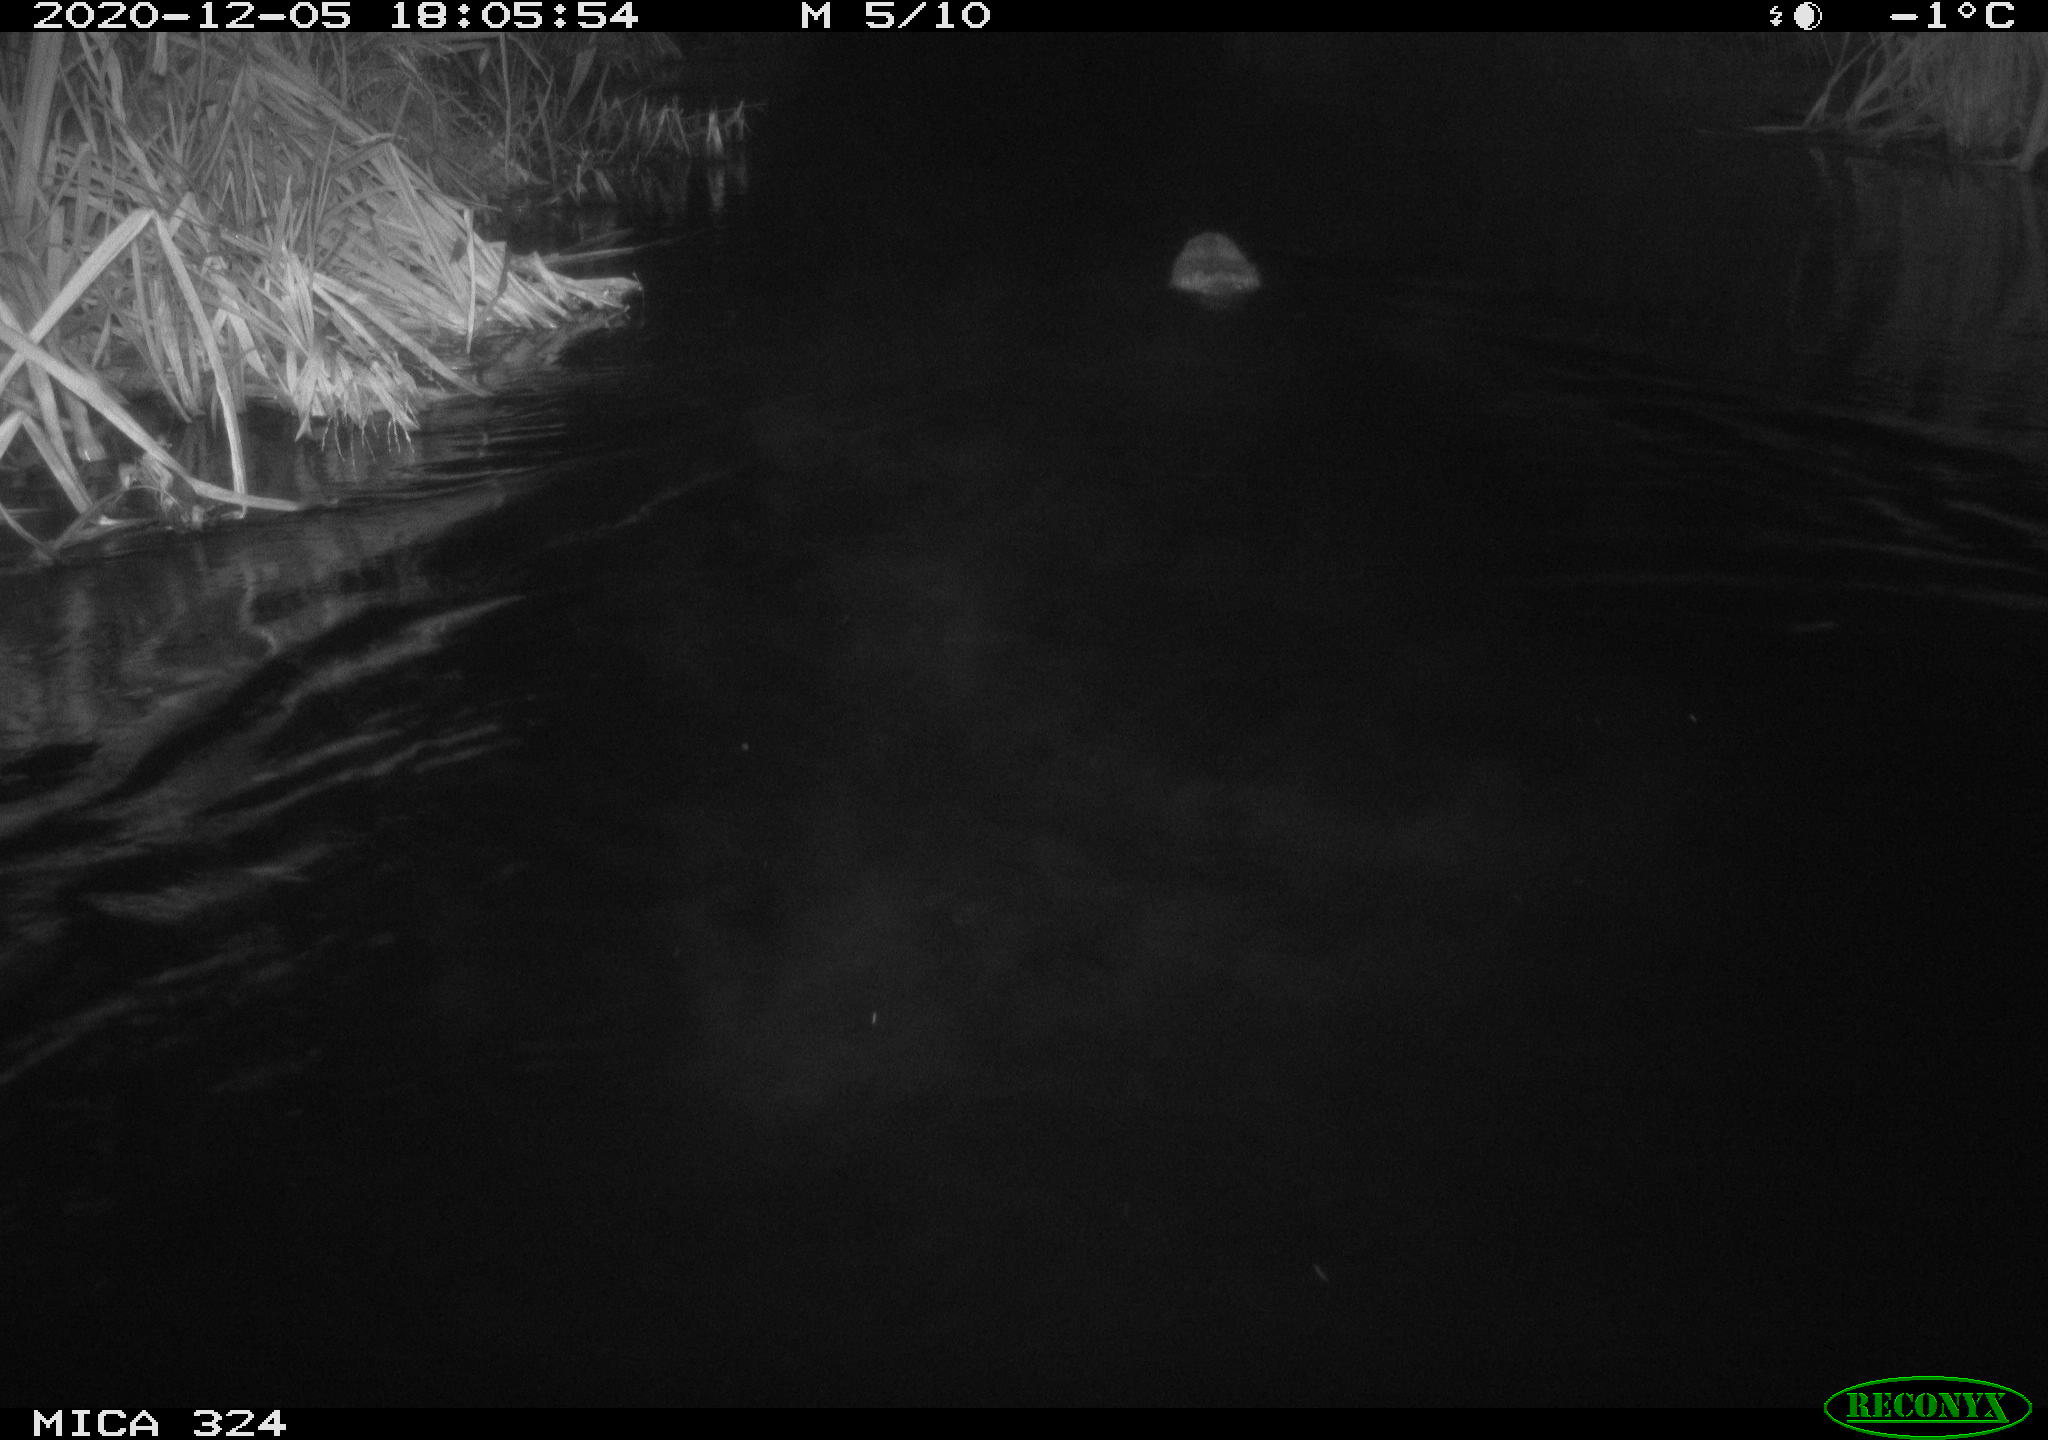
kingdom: Animalia
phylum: Chordata
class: Mammalia
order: Rodentia
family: Castoridae
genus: Castor
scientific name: Castor fiber
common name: Eurasian beaver
